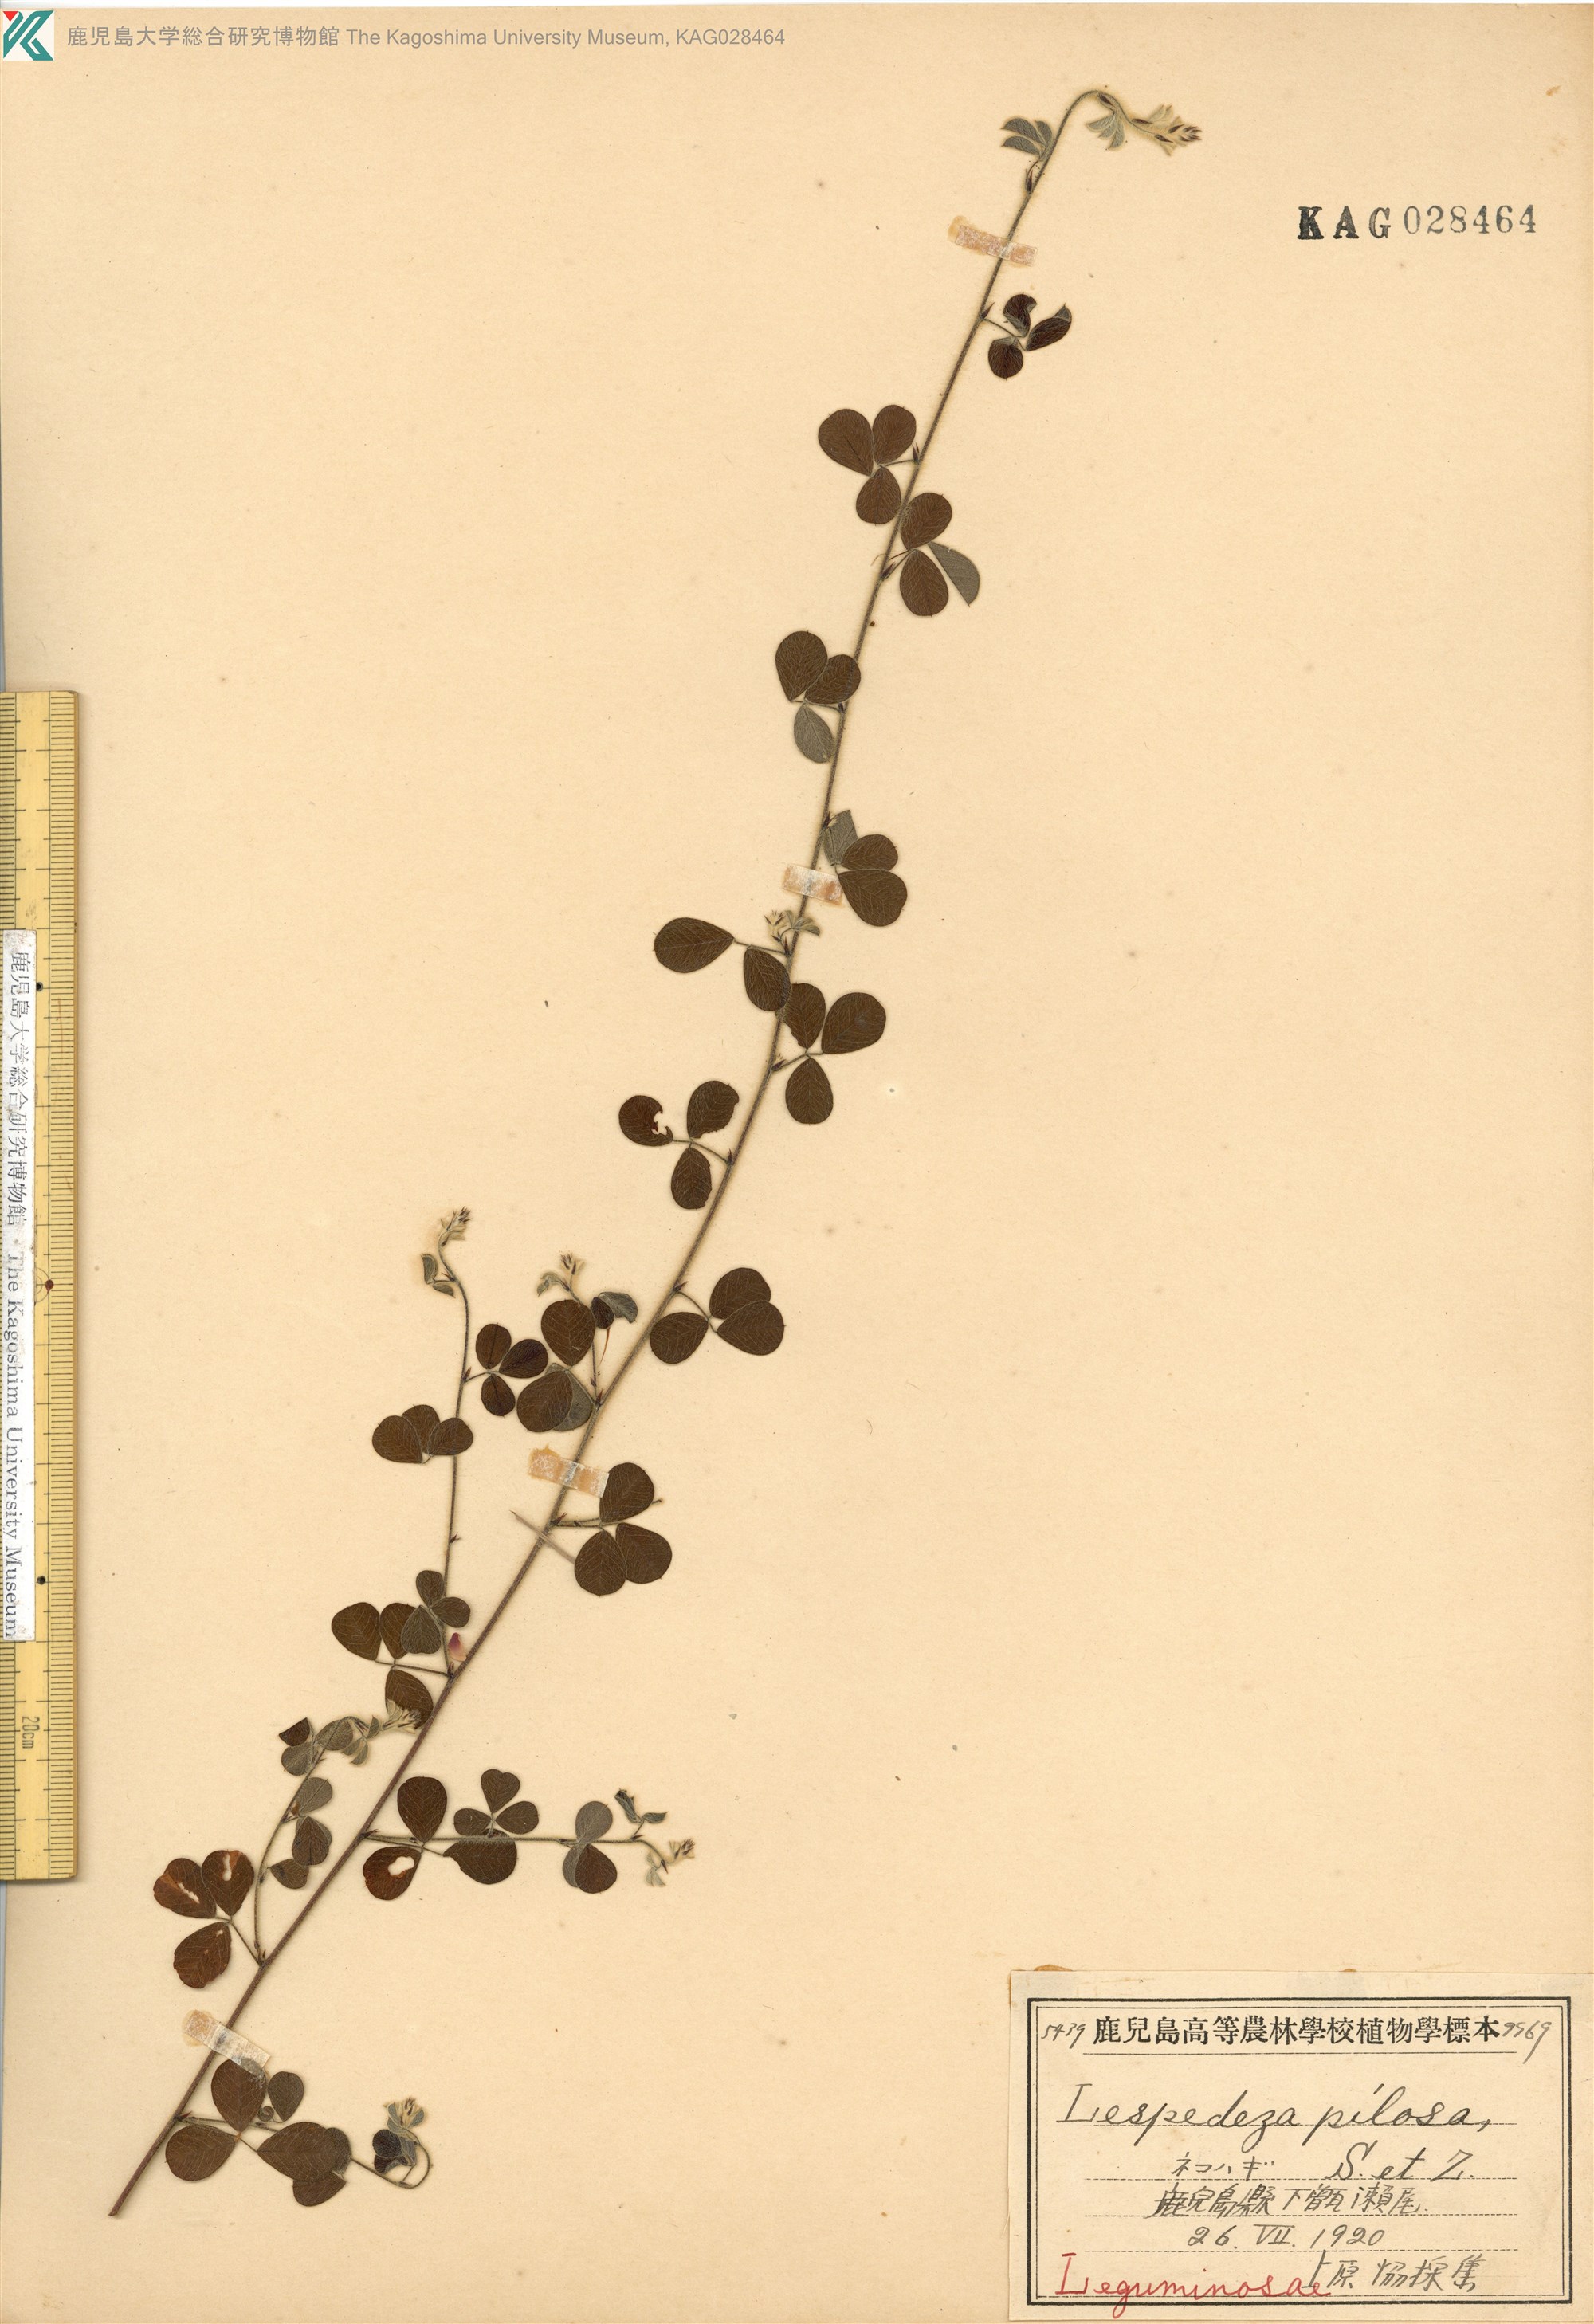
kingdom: Plantae
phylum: Tracheophyta
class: Magnoliopsida
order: Fabales
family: Fabaceae
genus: Lespedeza
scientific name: Lespedeza pilosa
